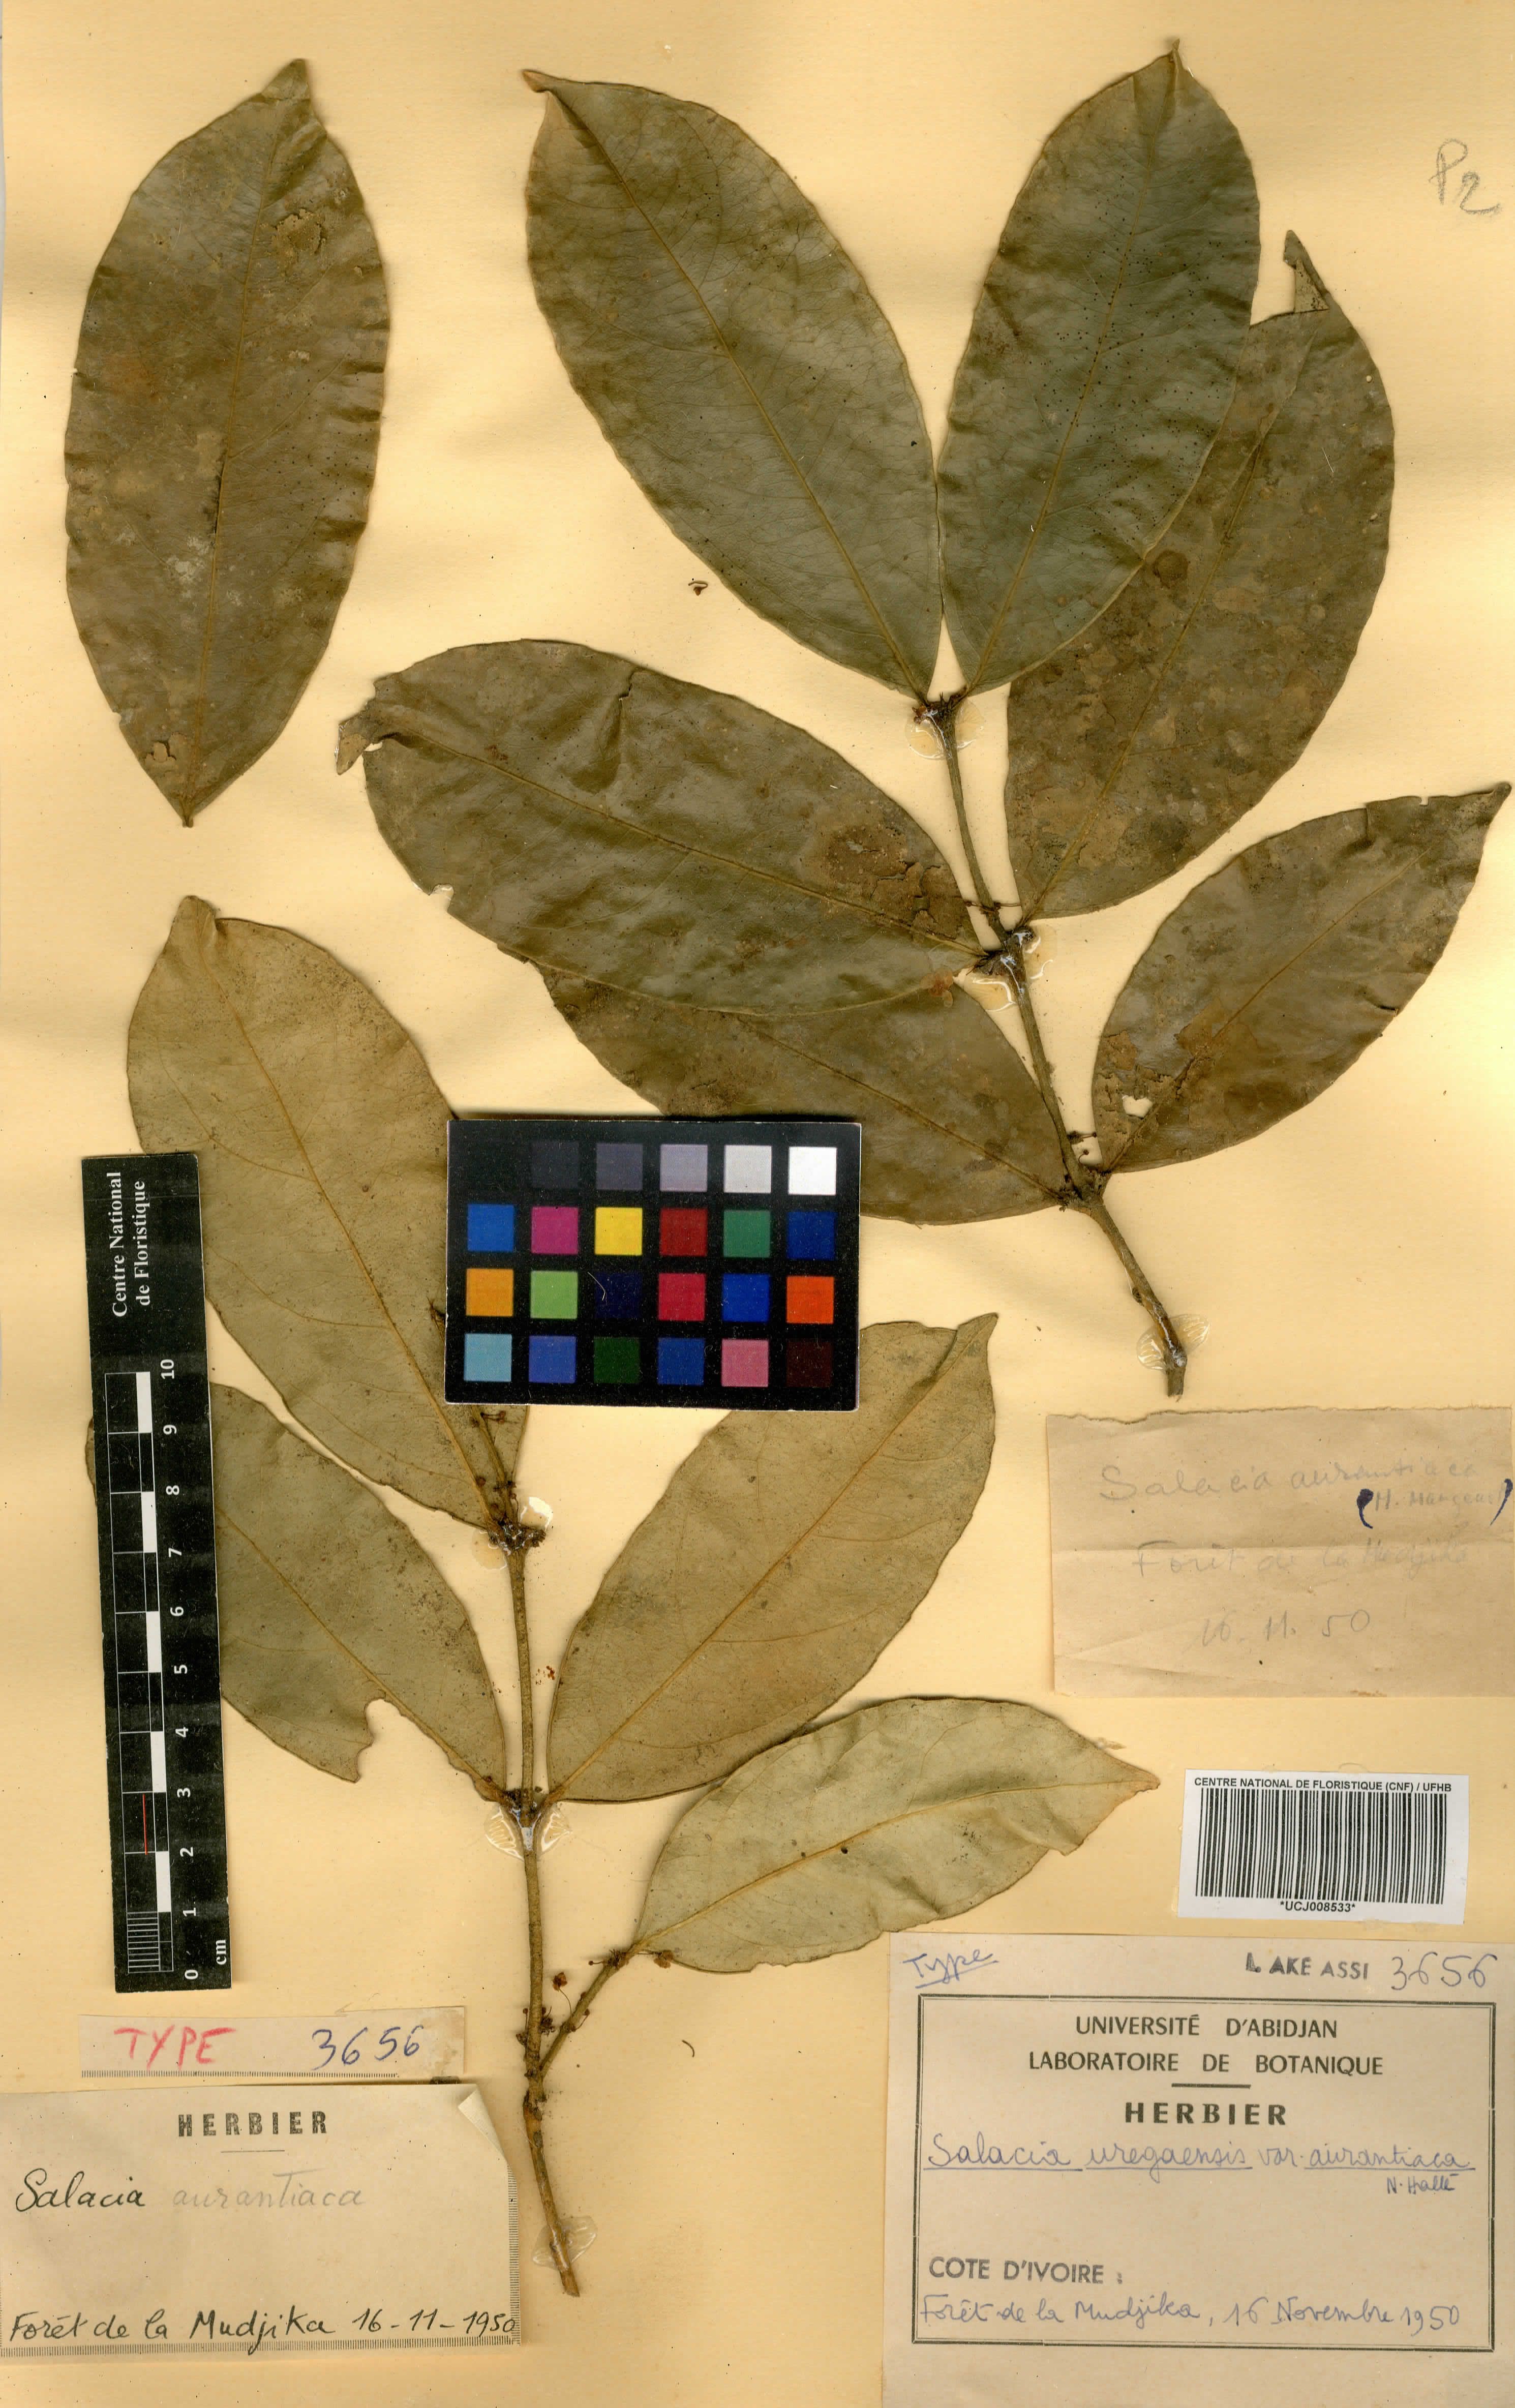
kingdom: Plantae
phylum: Tracheophyta
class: Magnoliopsida
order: Celastrales
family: Celastraceae
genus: Salacia
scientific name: Salacia lehmbachii
